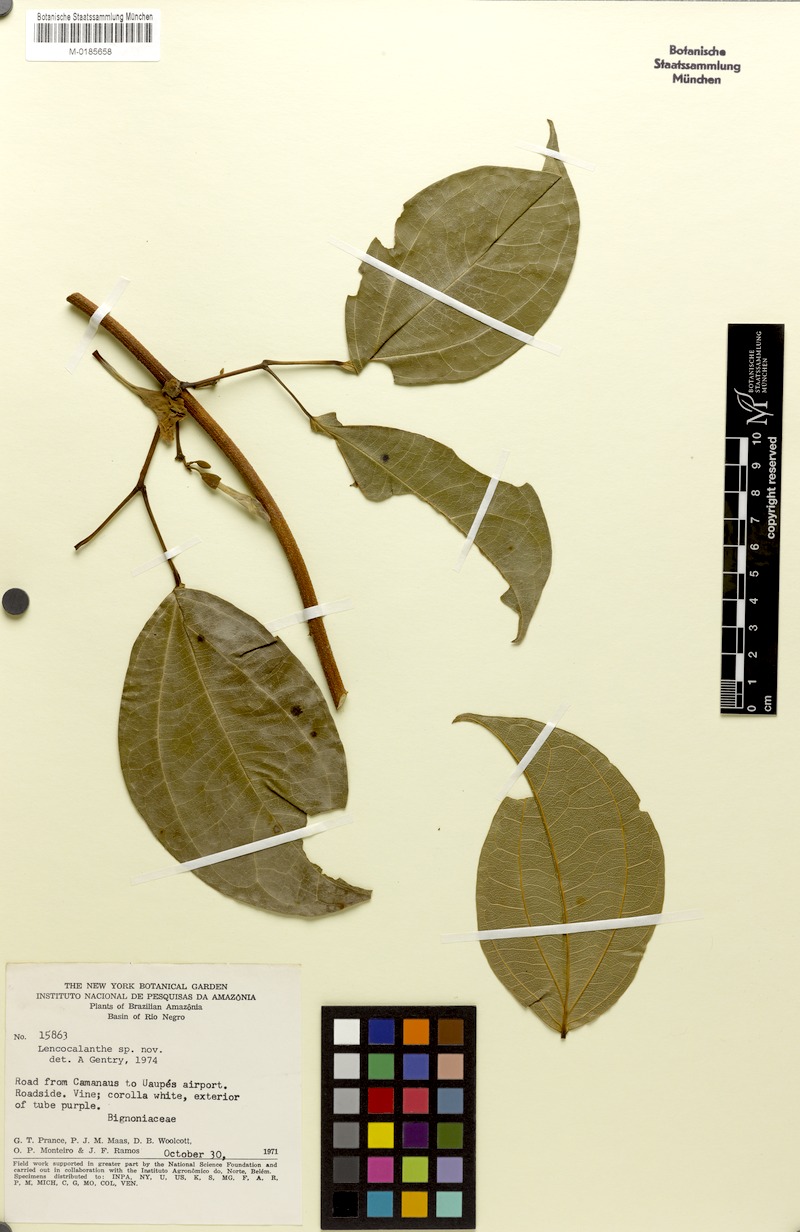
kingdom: Plantae
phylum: Tracheophyta
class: Magnoliopsida
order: Lamiales
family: Bignoniaceae
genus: Fridericia
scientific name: Fridericia prancei
